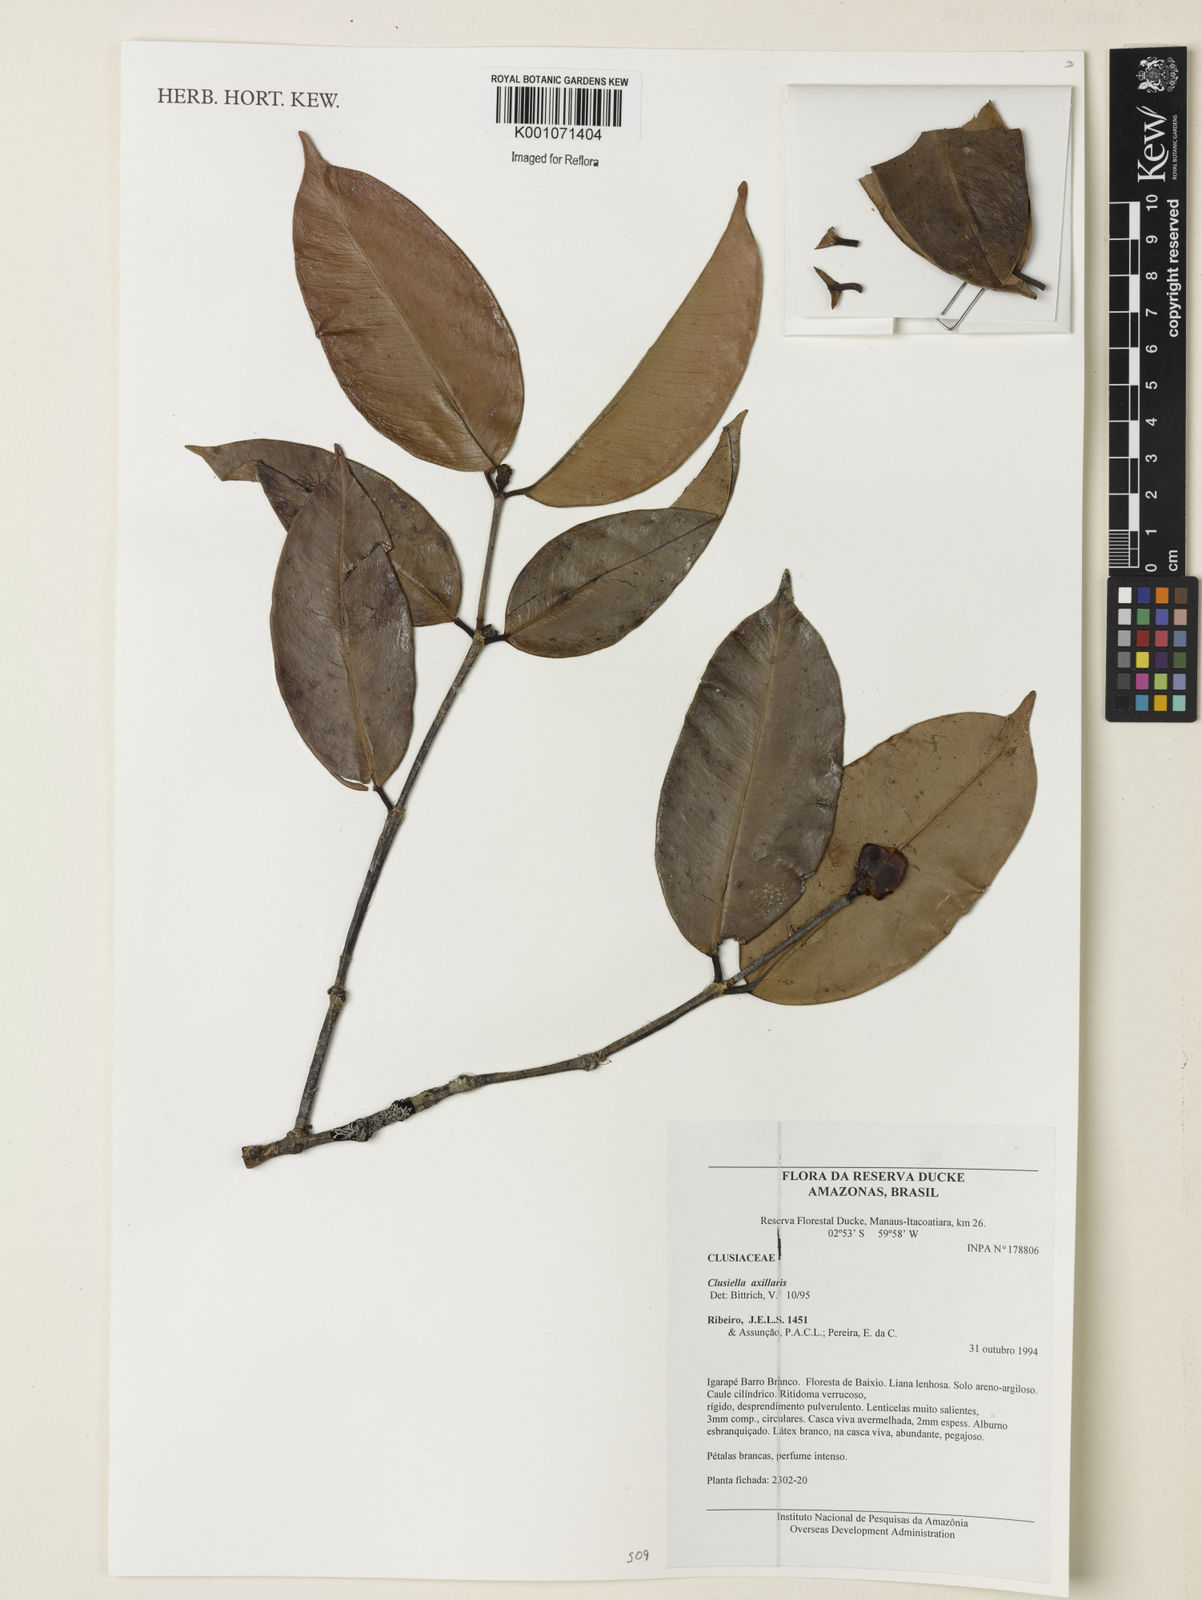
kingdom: Plantae
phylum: Tracheophyta
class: Magnoliopsida
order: Malpighiales
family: Calophyllaceae
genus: Clusiella
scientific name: Clusiella axillaris
